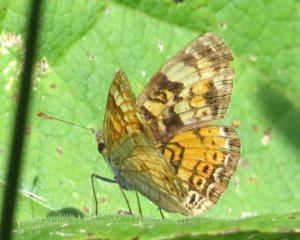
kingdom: Animalia
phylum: Arthropoda
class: Insecta
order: Lepidoptera
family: Nymphalidae
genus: Phyciodes
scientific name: Phyciodes tharos
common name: Northern Crescent
